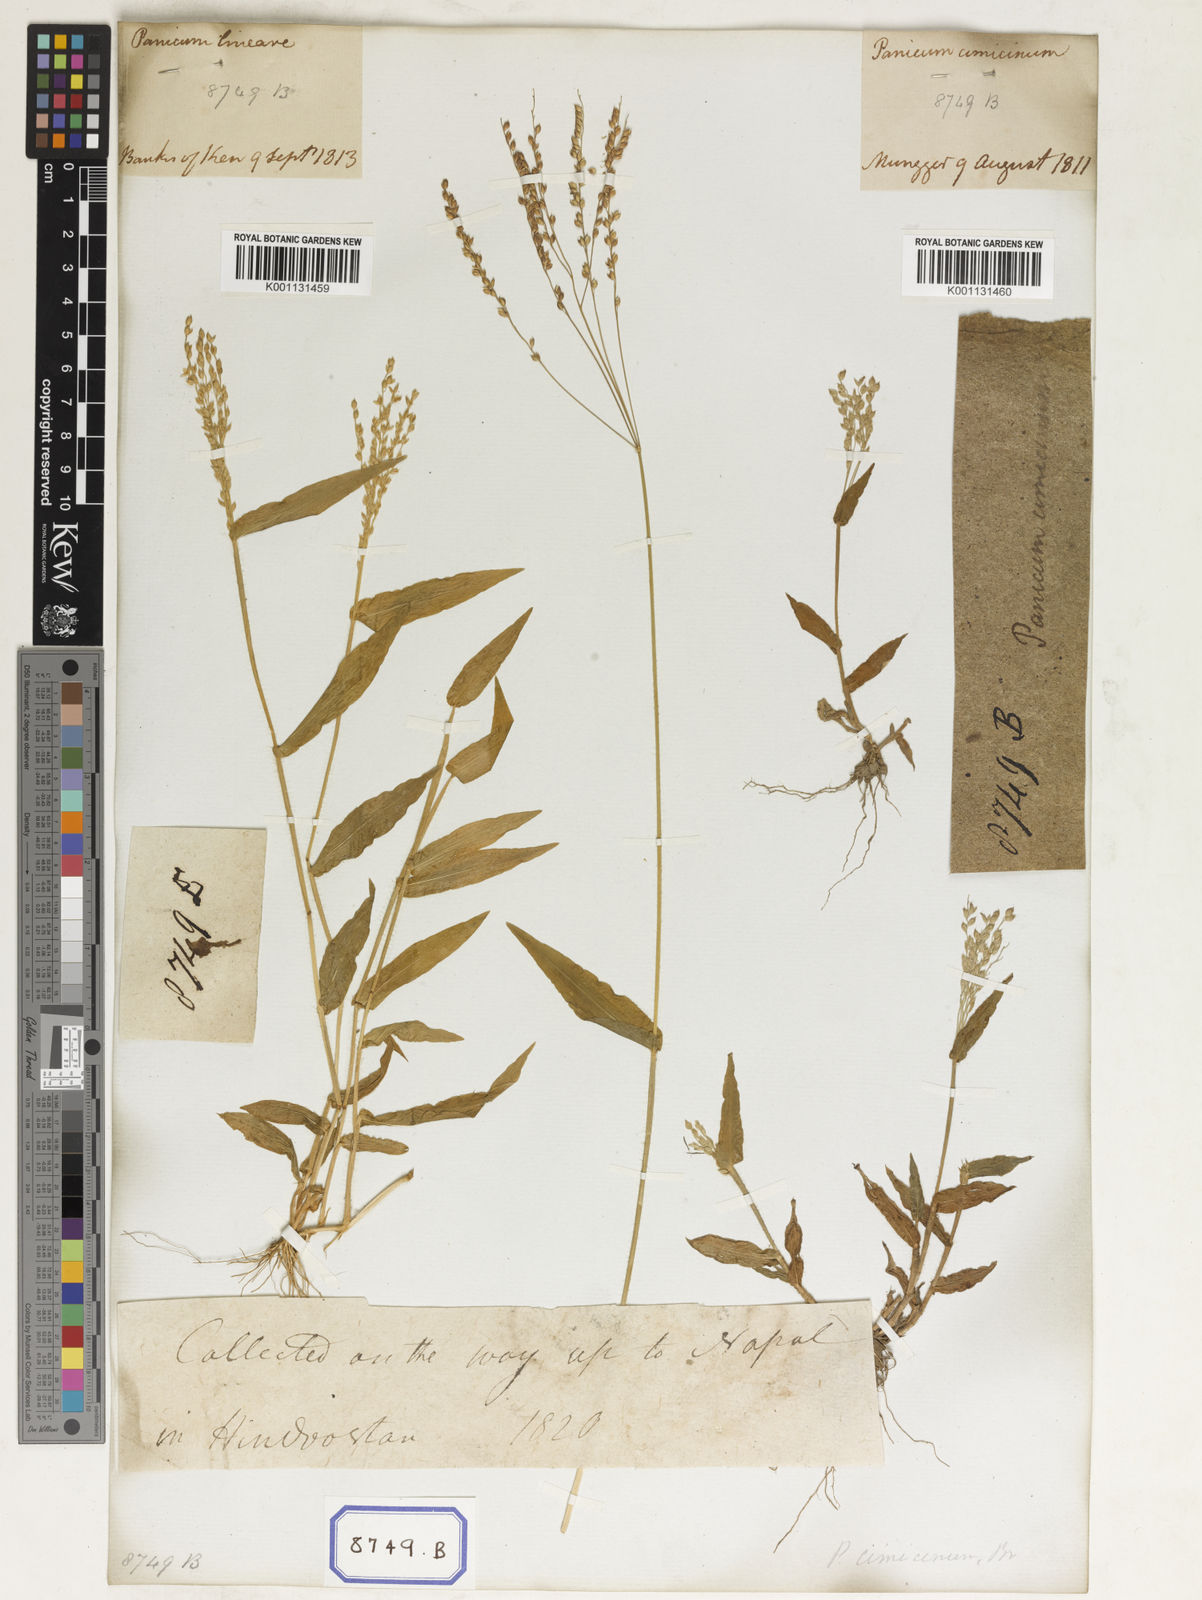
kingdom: Plantae
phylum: Tracheophyta
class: Liliopsida
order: Poales
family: Poaceae
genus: Alloteropsis
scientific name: Alloteropsis
